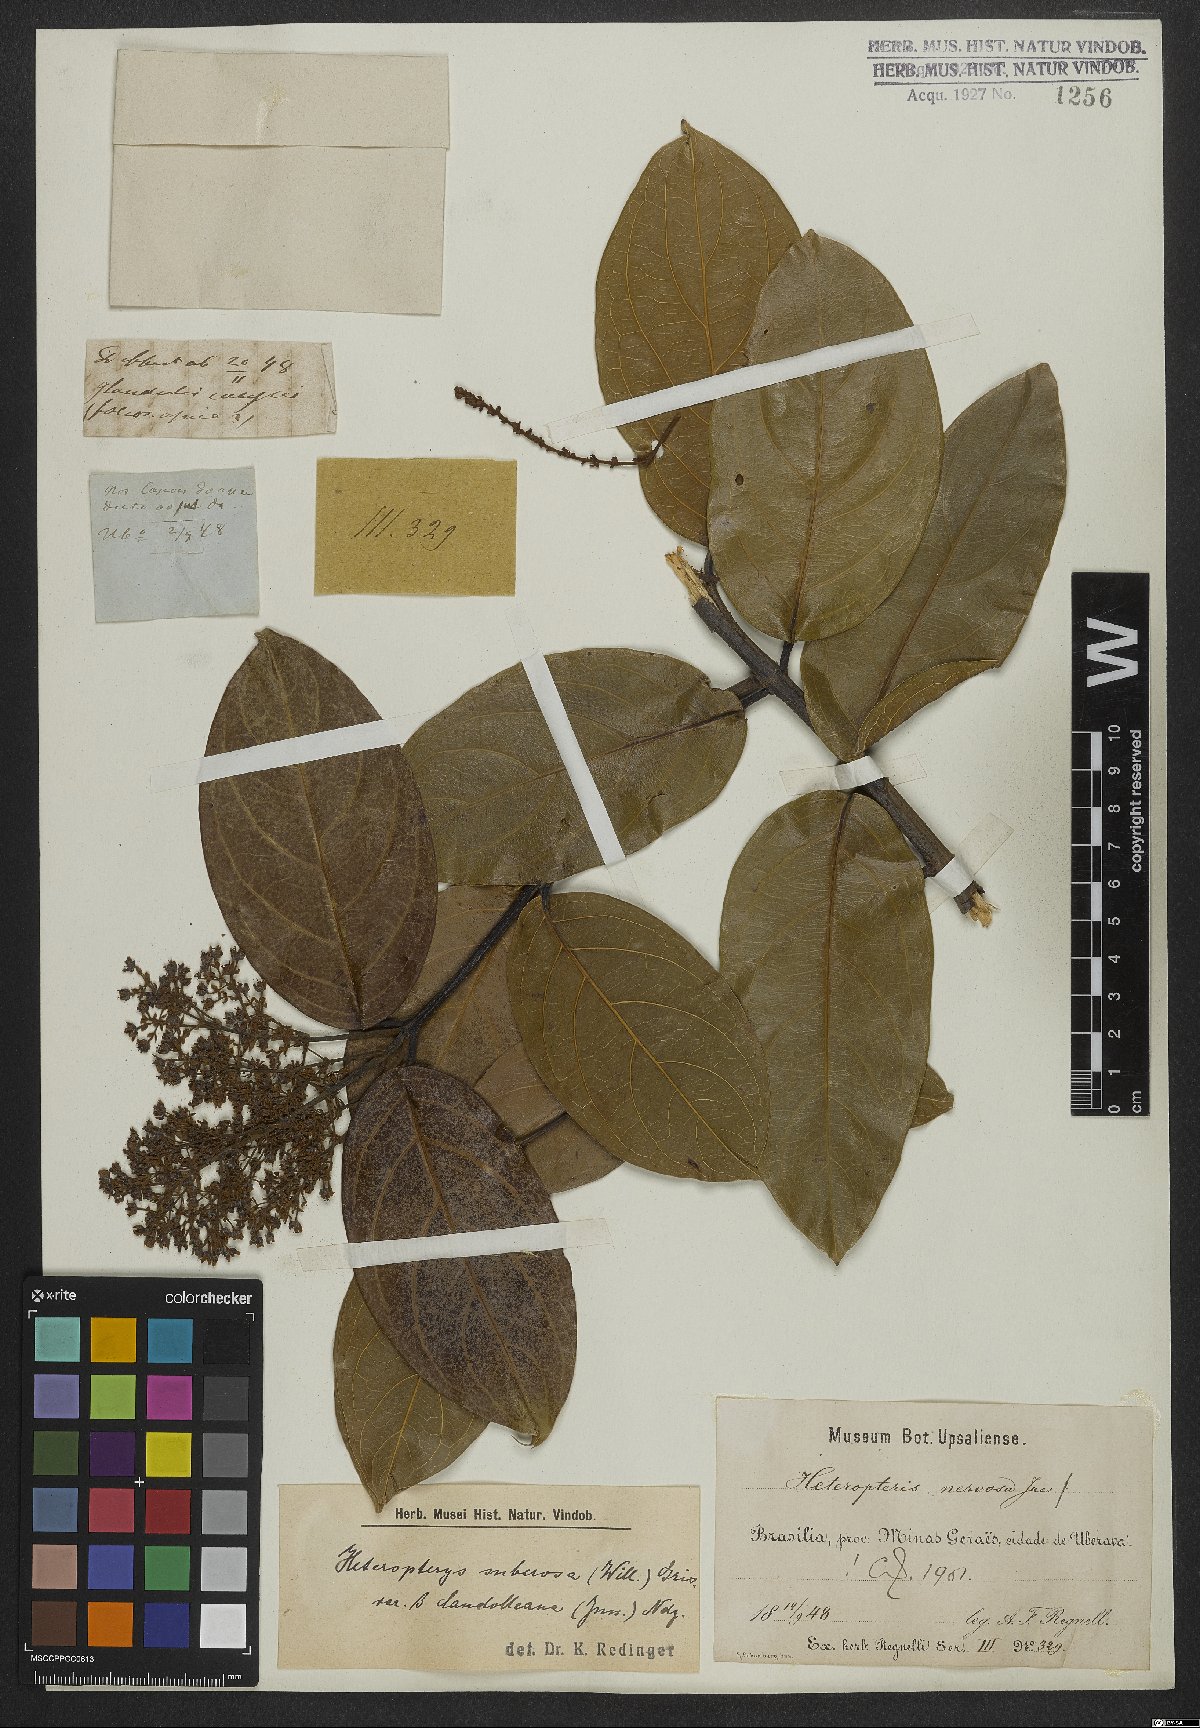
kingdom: Plantae
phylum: Tracheophyta
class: Magnoliopsida
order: Malpighiales
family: Malpighiaceae
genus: Heteropterys
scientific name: Heteropterys nervosa
